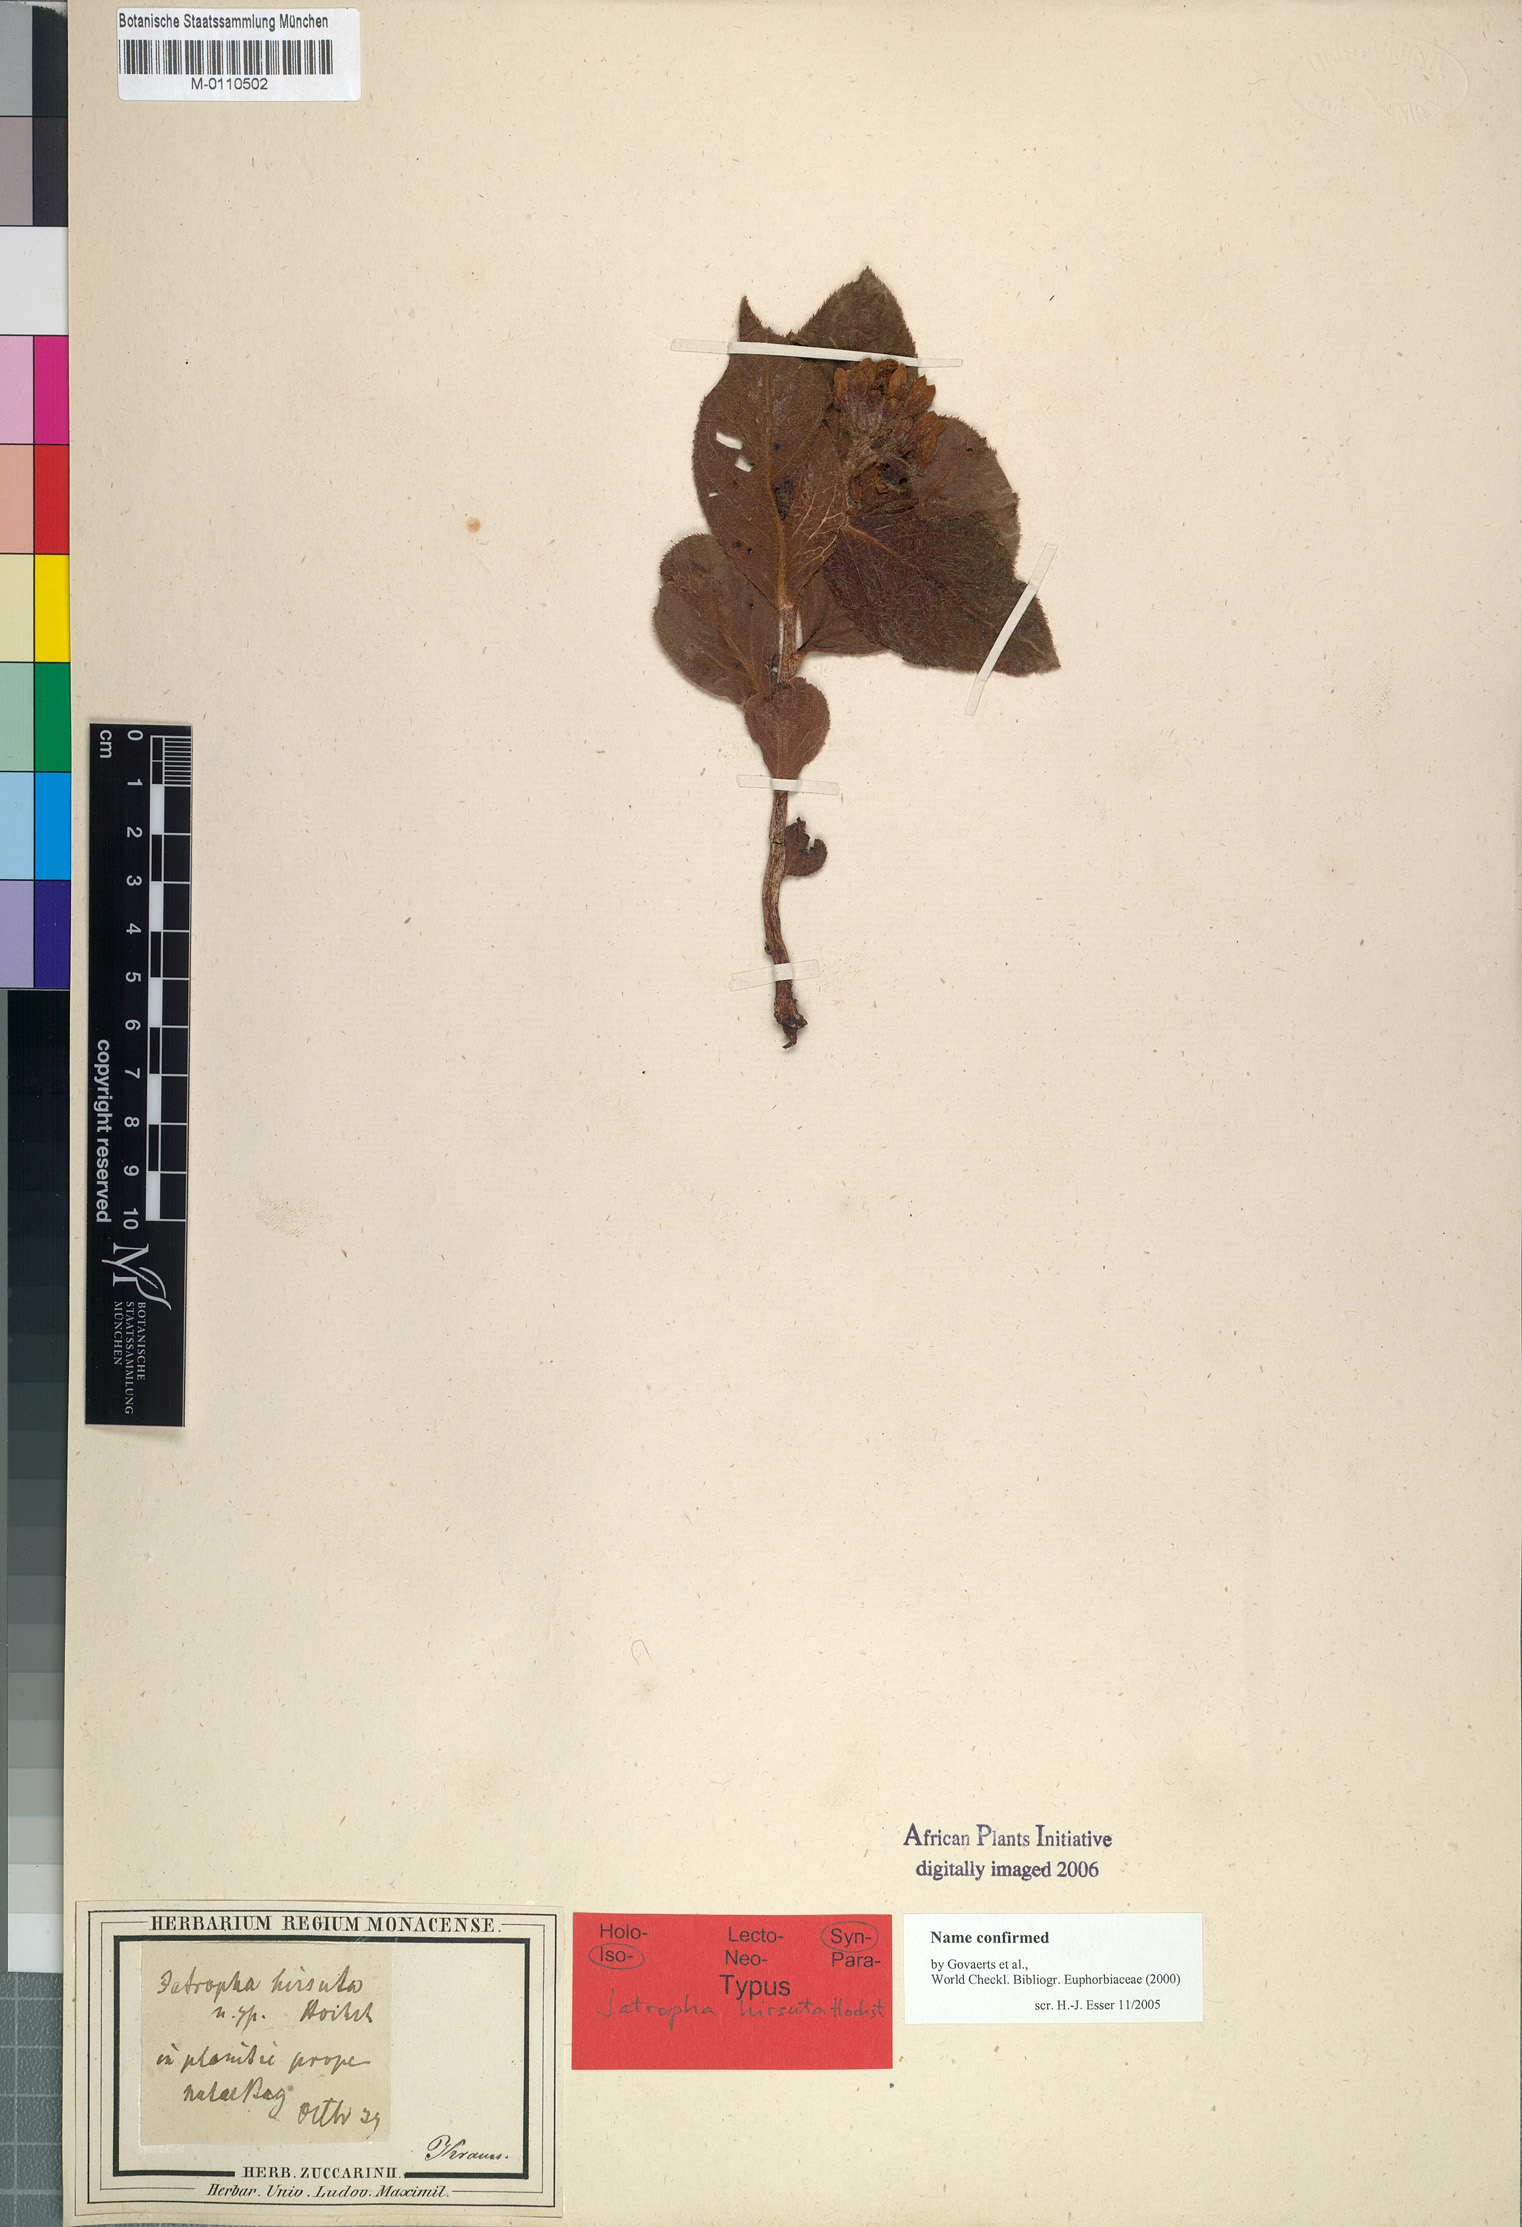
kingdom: Plantae
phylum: Tracheophyta
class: Magnoliopsida
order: Malpighiales
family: Euphorbiaceae
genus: Jatropha
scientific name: Jatropha hirsuta
